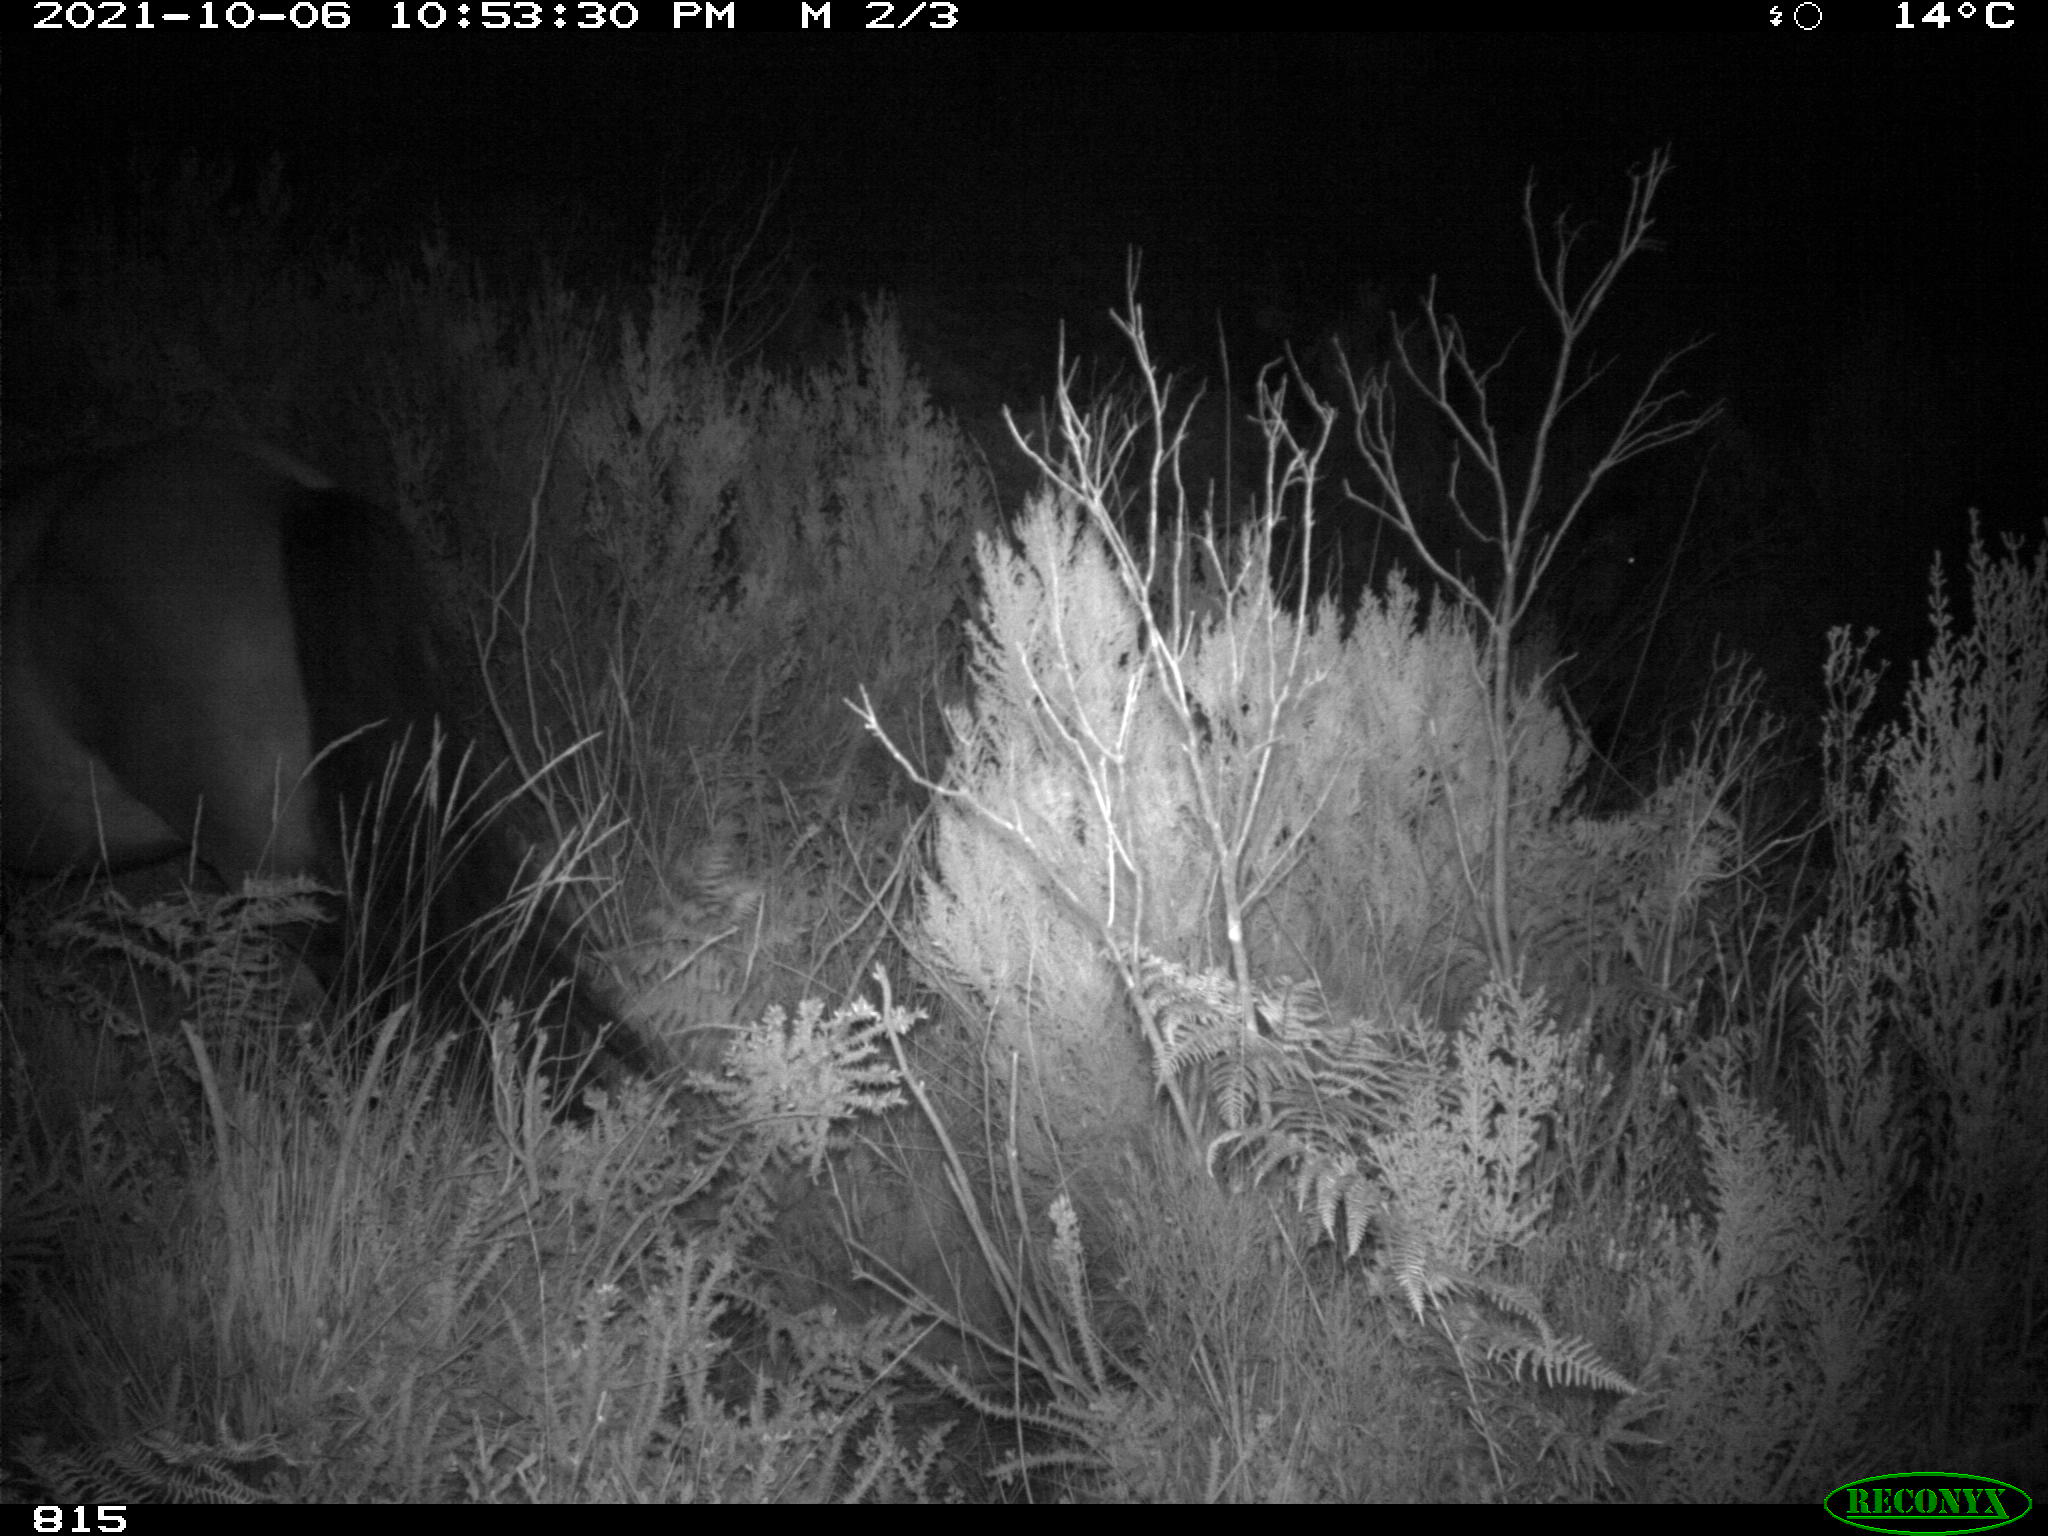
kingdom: Animalia
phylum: Chordata
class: Mammalia
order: Perissodactyla
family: Equidae
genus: Equus
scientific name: Equus caballus
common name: Horse
